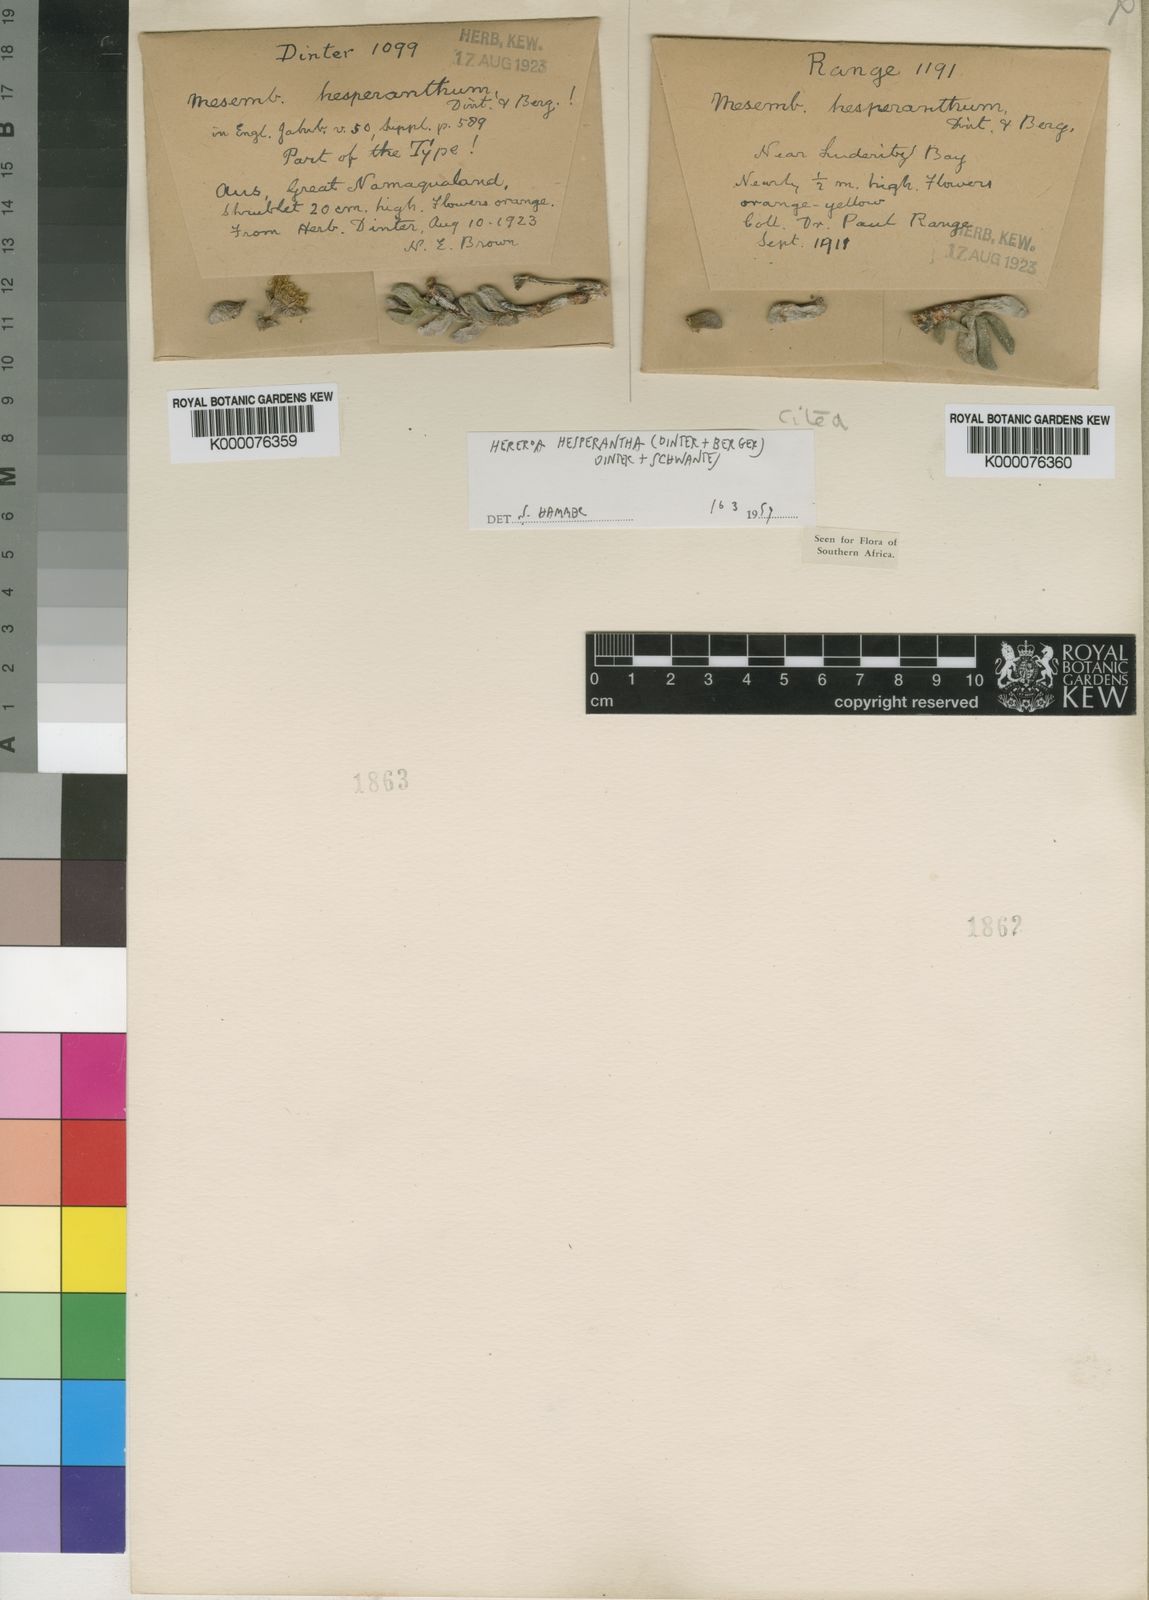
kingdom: Plantae
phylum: Tracheophyta
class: Magnoliopsida
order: Caryophyllales
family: Aizoaceae
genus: Dracophilus
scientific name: Dracophilus Hereroa hesperantha
